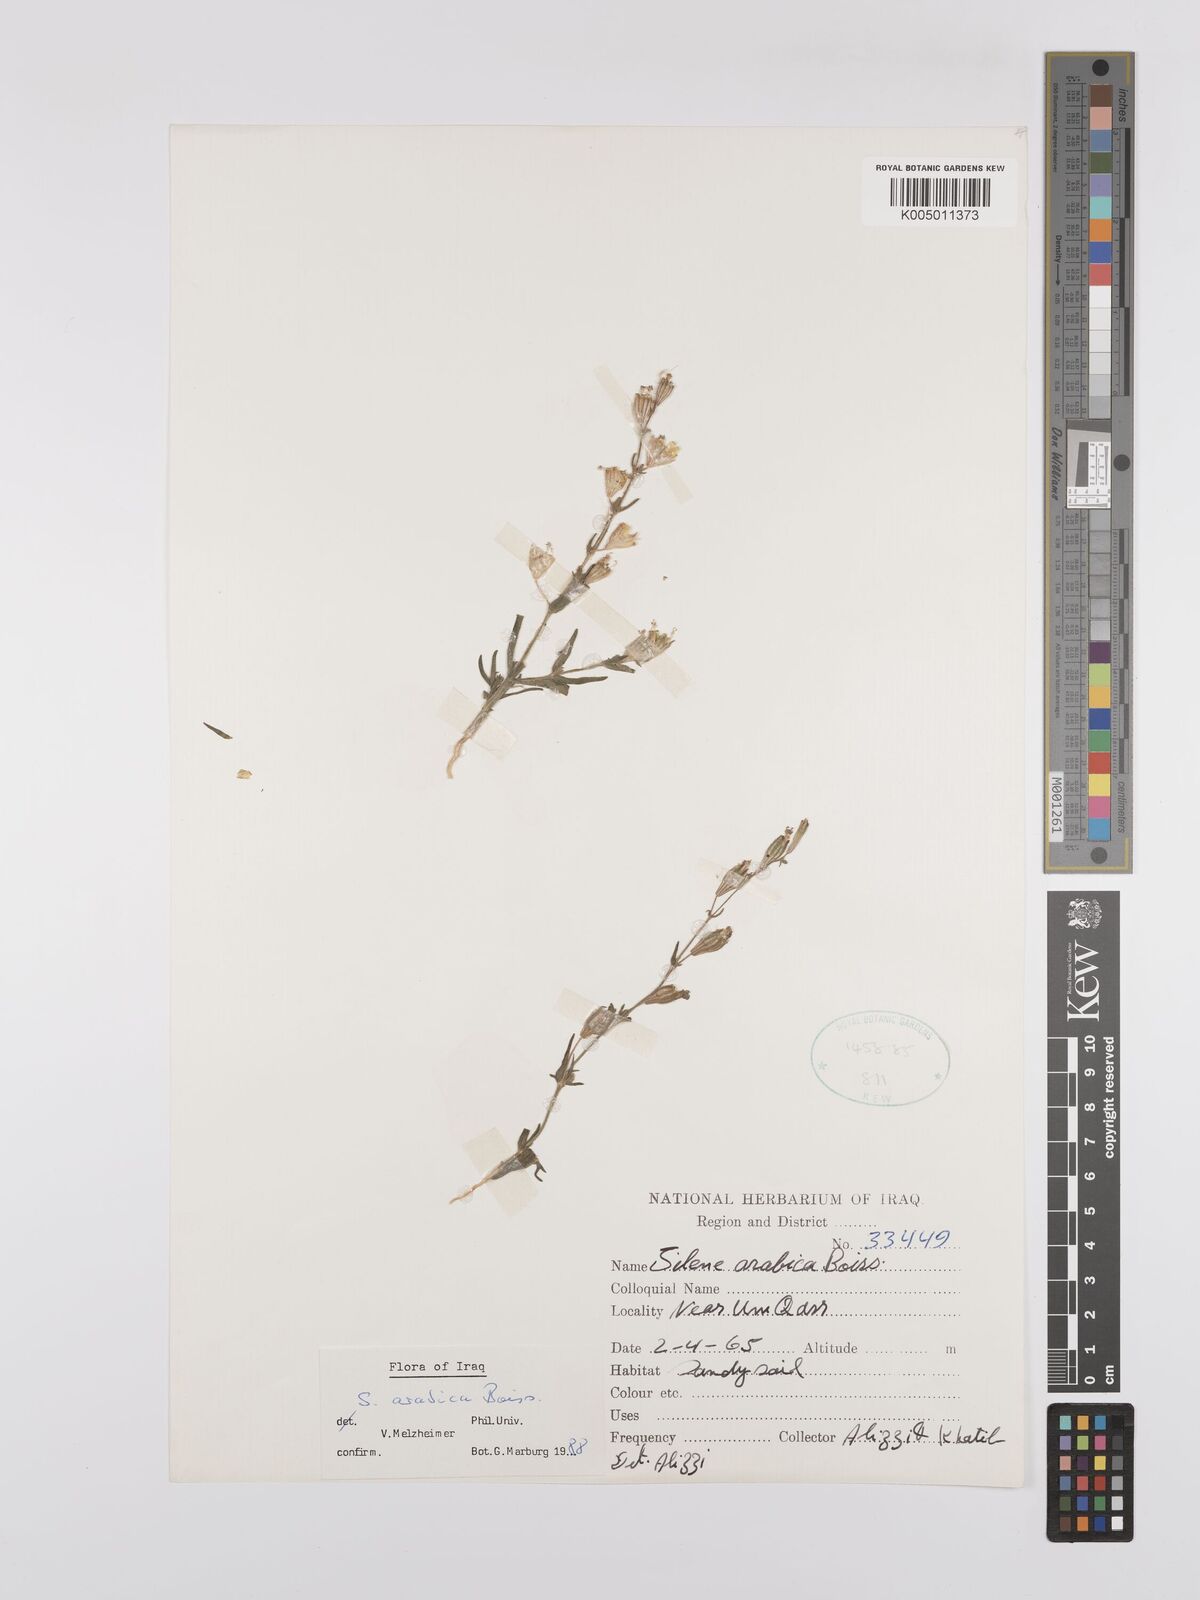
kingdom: Plantae
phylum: Tracheophyta
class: Magnoliopsida
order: Caryophyllales
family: Caryophyllaceae
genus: Silene
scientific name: Silene arabica
